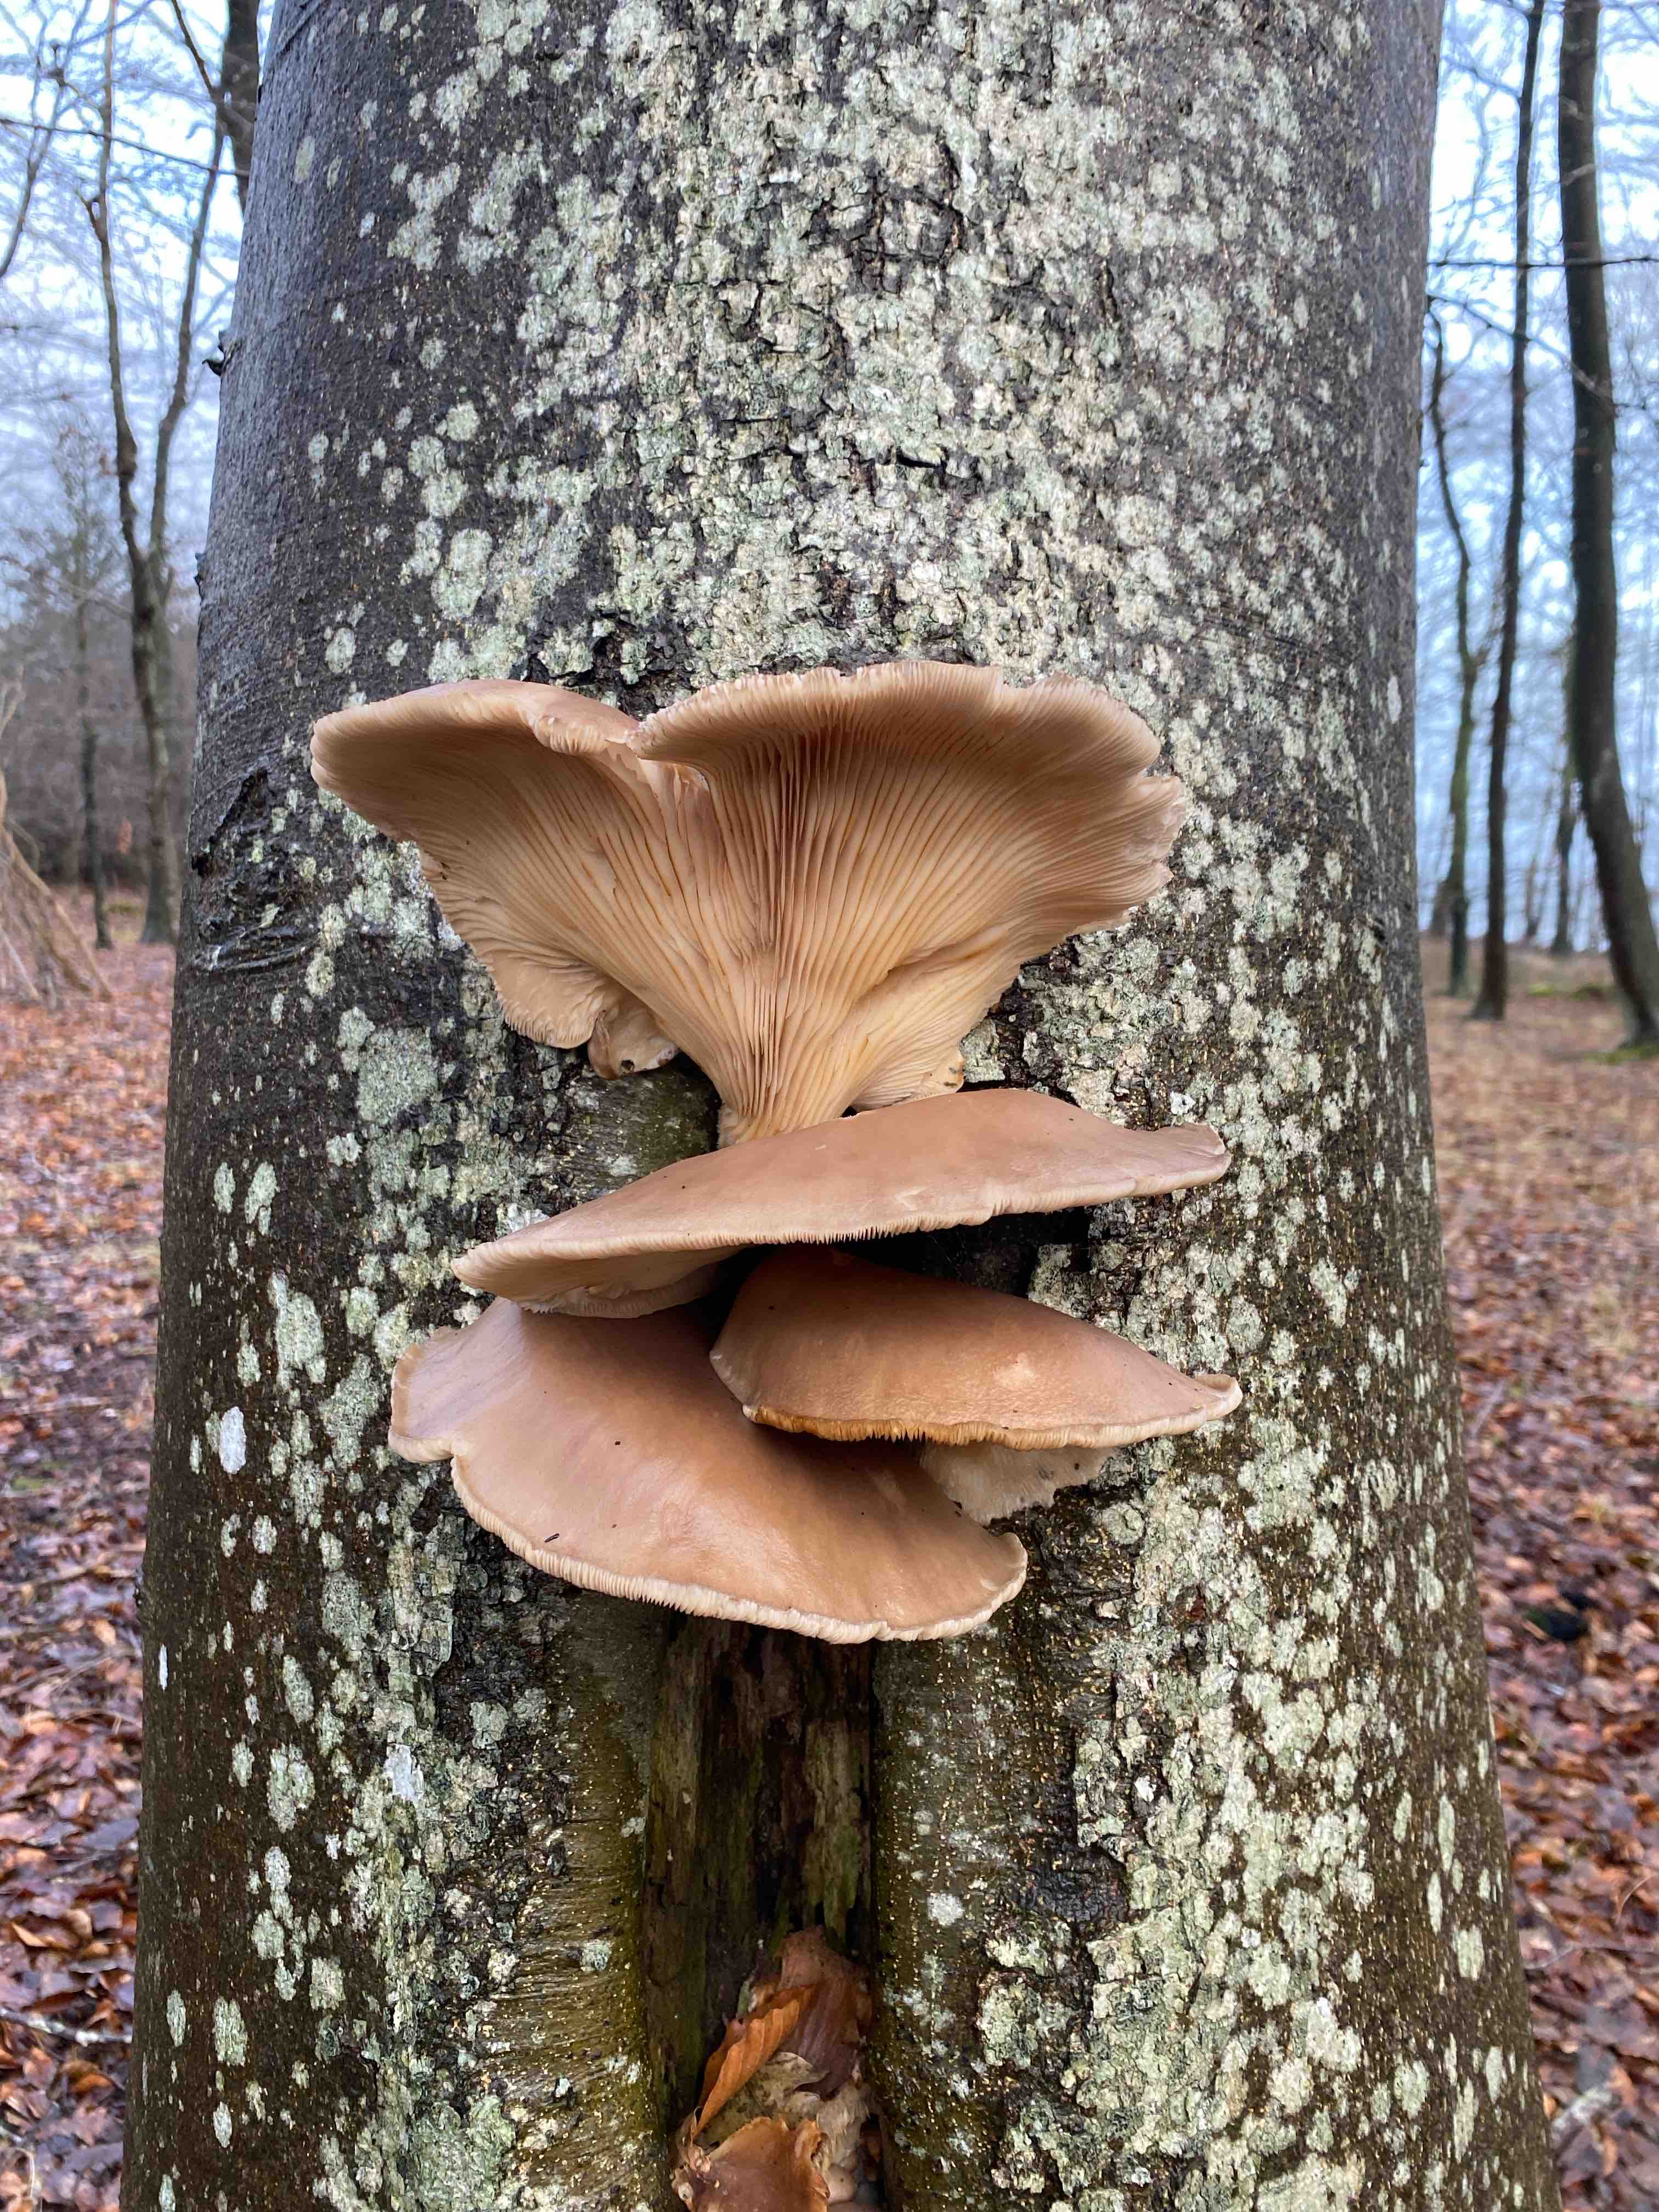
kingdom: Fungi
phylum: Basidiomycota
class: Agaricomycetes
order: Agaricales
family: Pleurotaceae
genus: Pleurotus
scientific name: Pleurotus ostreatus
